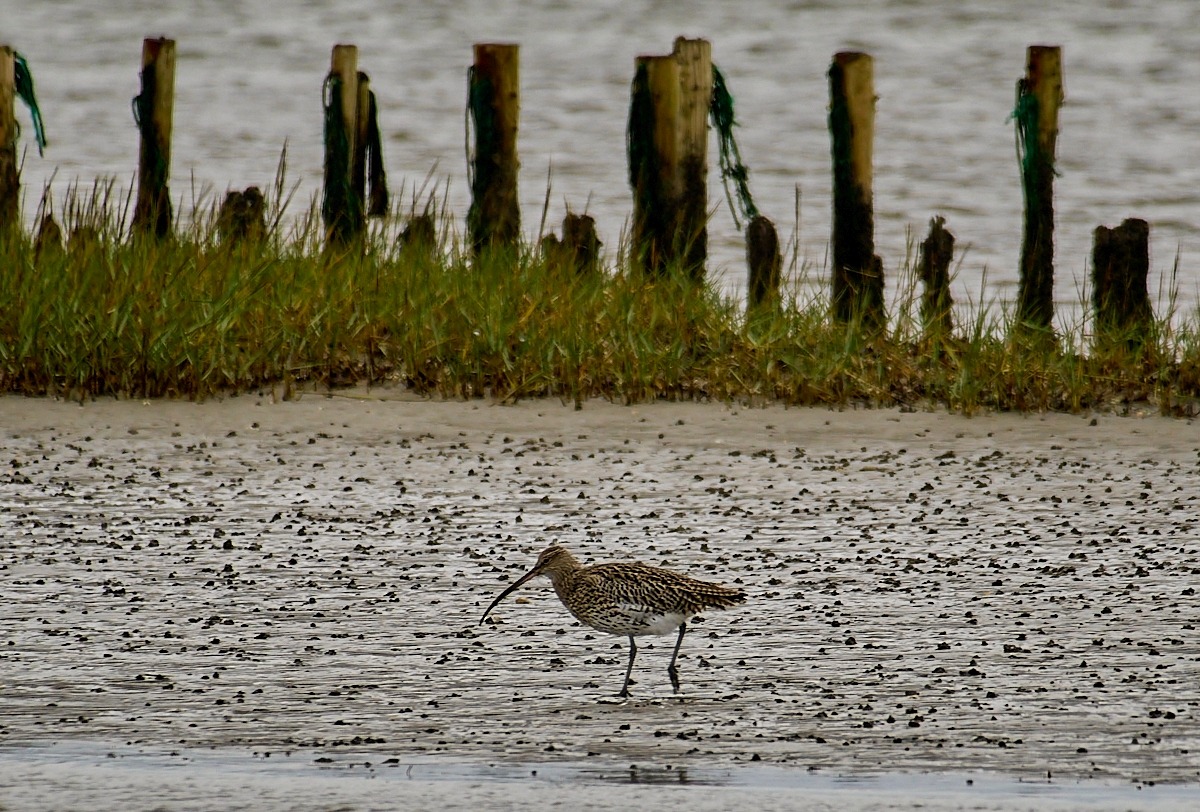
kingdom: Animalia
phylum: Chordata
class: Aves
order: Charadriiformes
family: Scolopacidae
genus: Numenius
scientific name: Numenius arquata
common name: Storspove
